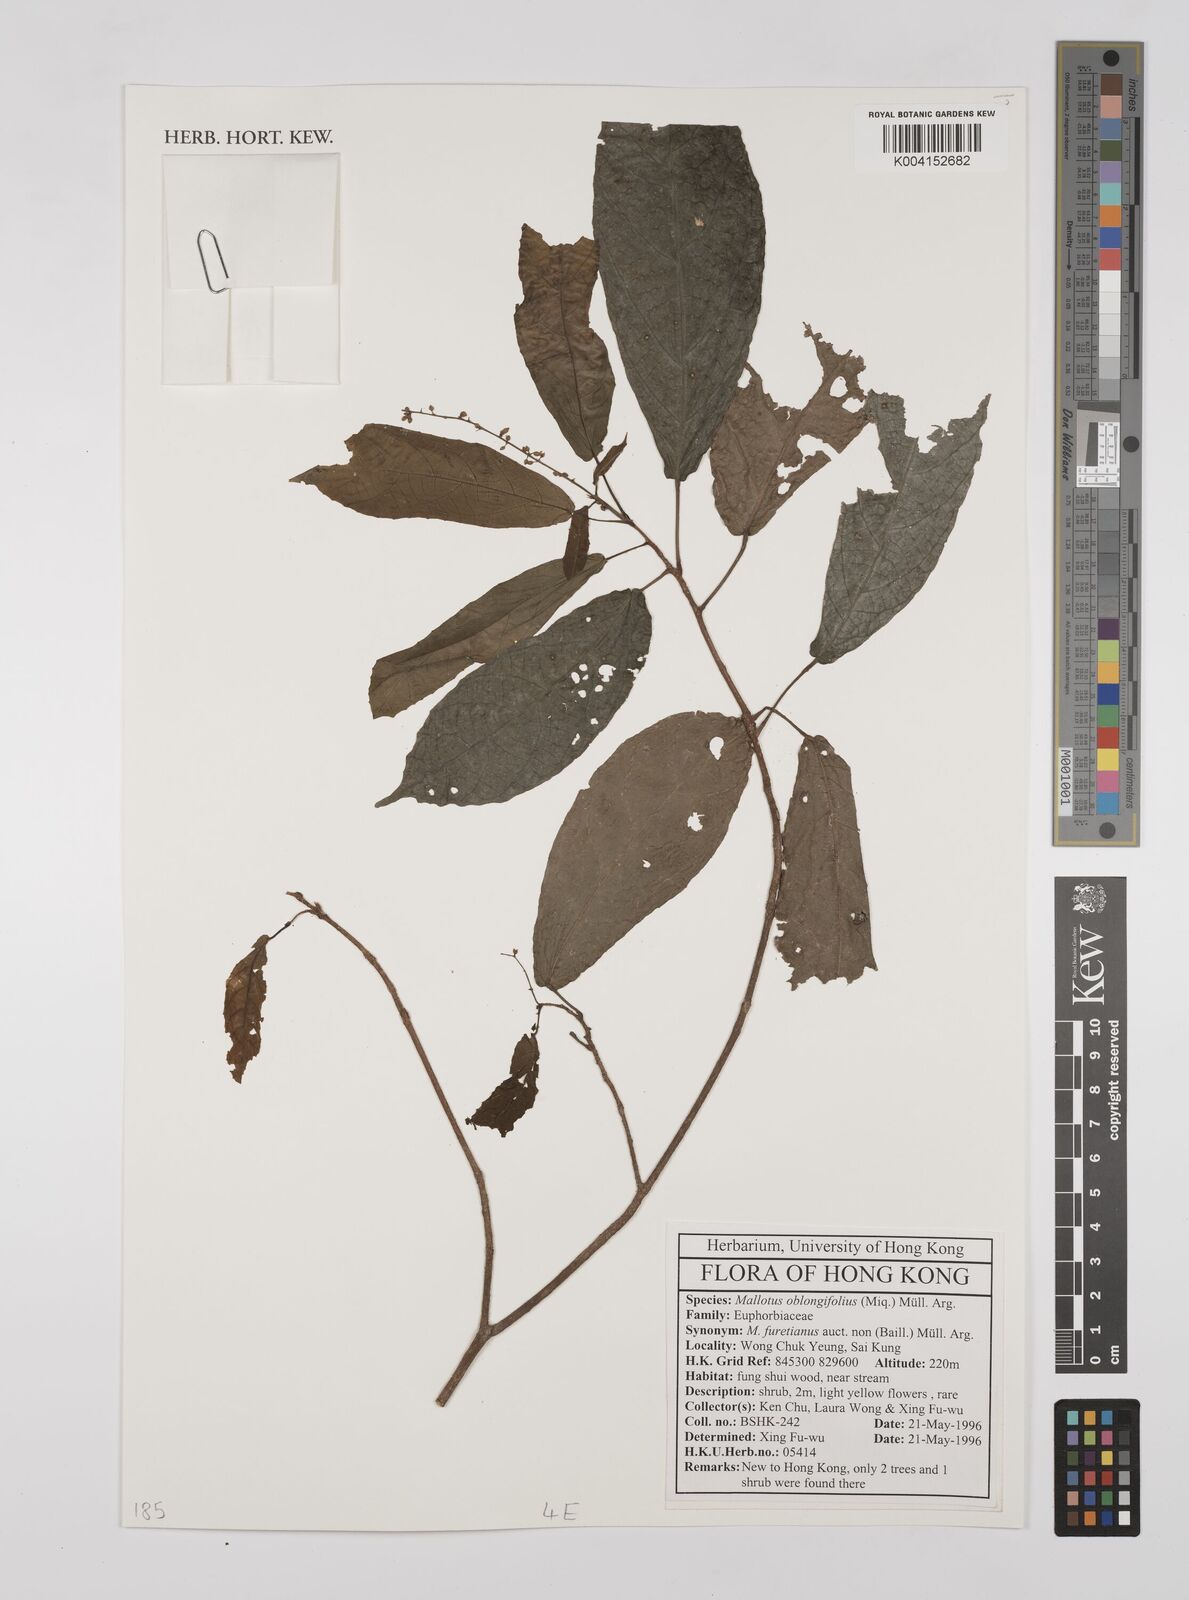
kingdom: Plantae
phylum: Tracheophyta
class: Magnoliopsida
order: Malpighiales
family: Euphorbiaceae
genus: Mallotus
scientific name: Mallotus peltatus
